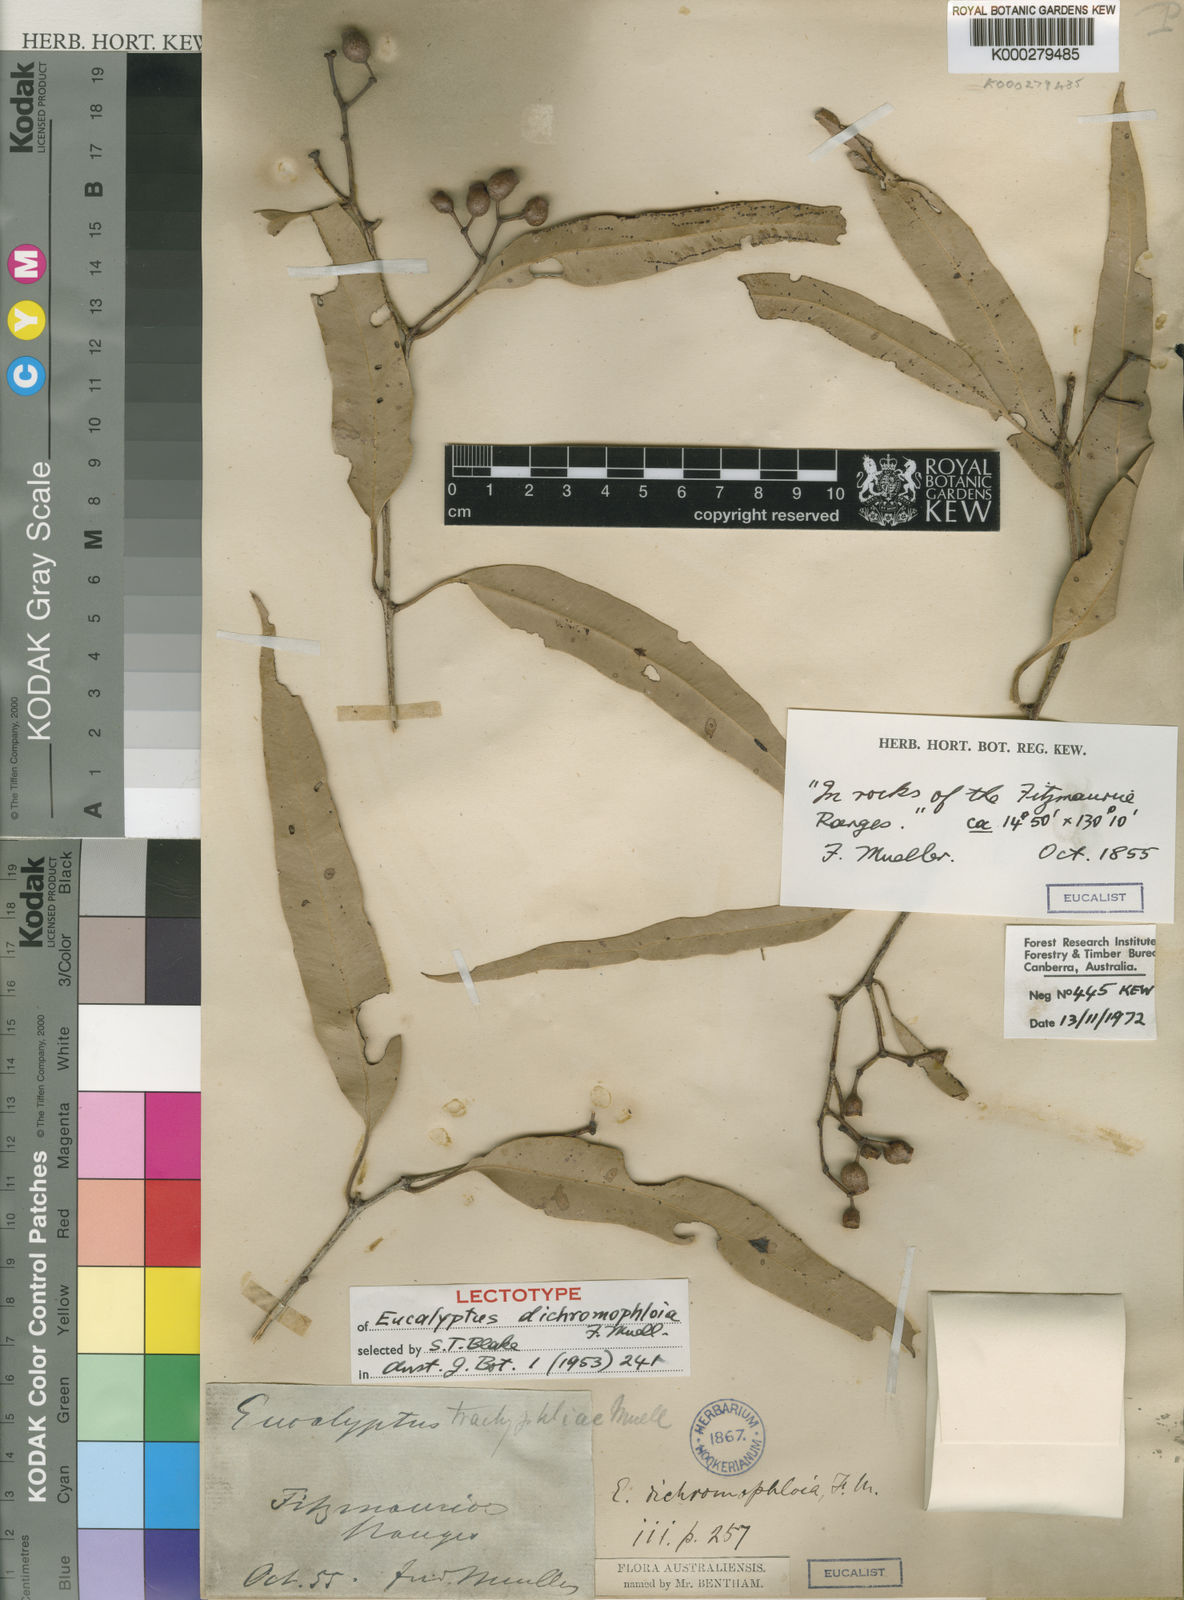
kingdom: Plantae
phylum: Tracheophyta
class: Magnoliopsida
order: Myrtales
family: Myrtaceae
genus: Corymbia
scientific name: Corymbia dichromophloia
